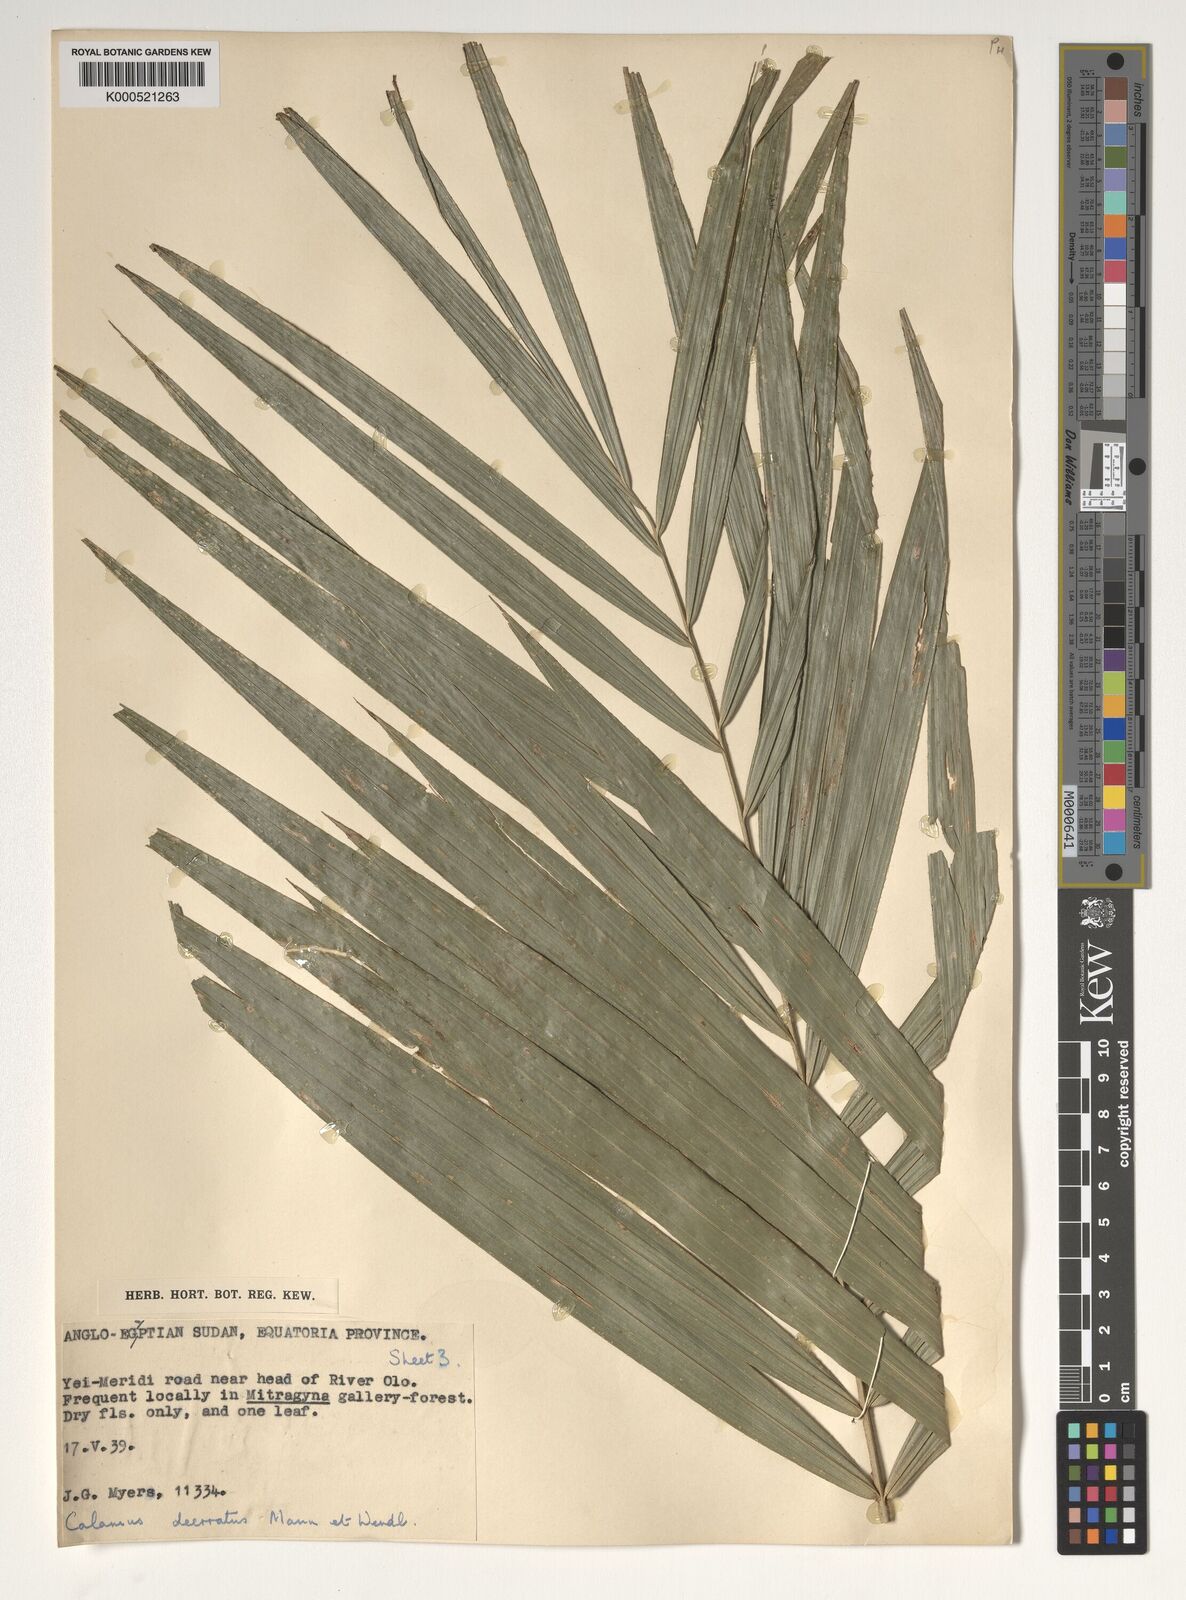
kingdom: Plantae
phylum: Tracheophyta
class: Liliopsida
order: Arecales
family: Arecaceae
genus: Calamus
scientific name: Calamus deerratus
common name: Rattan
